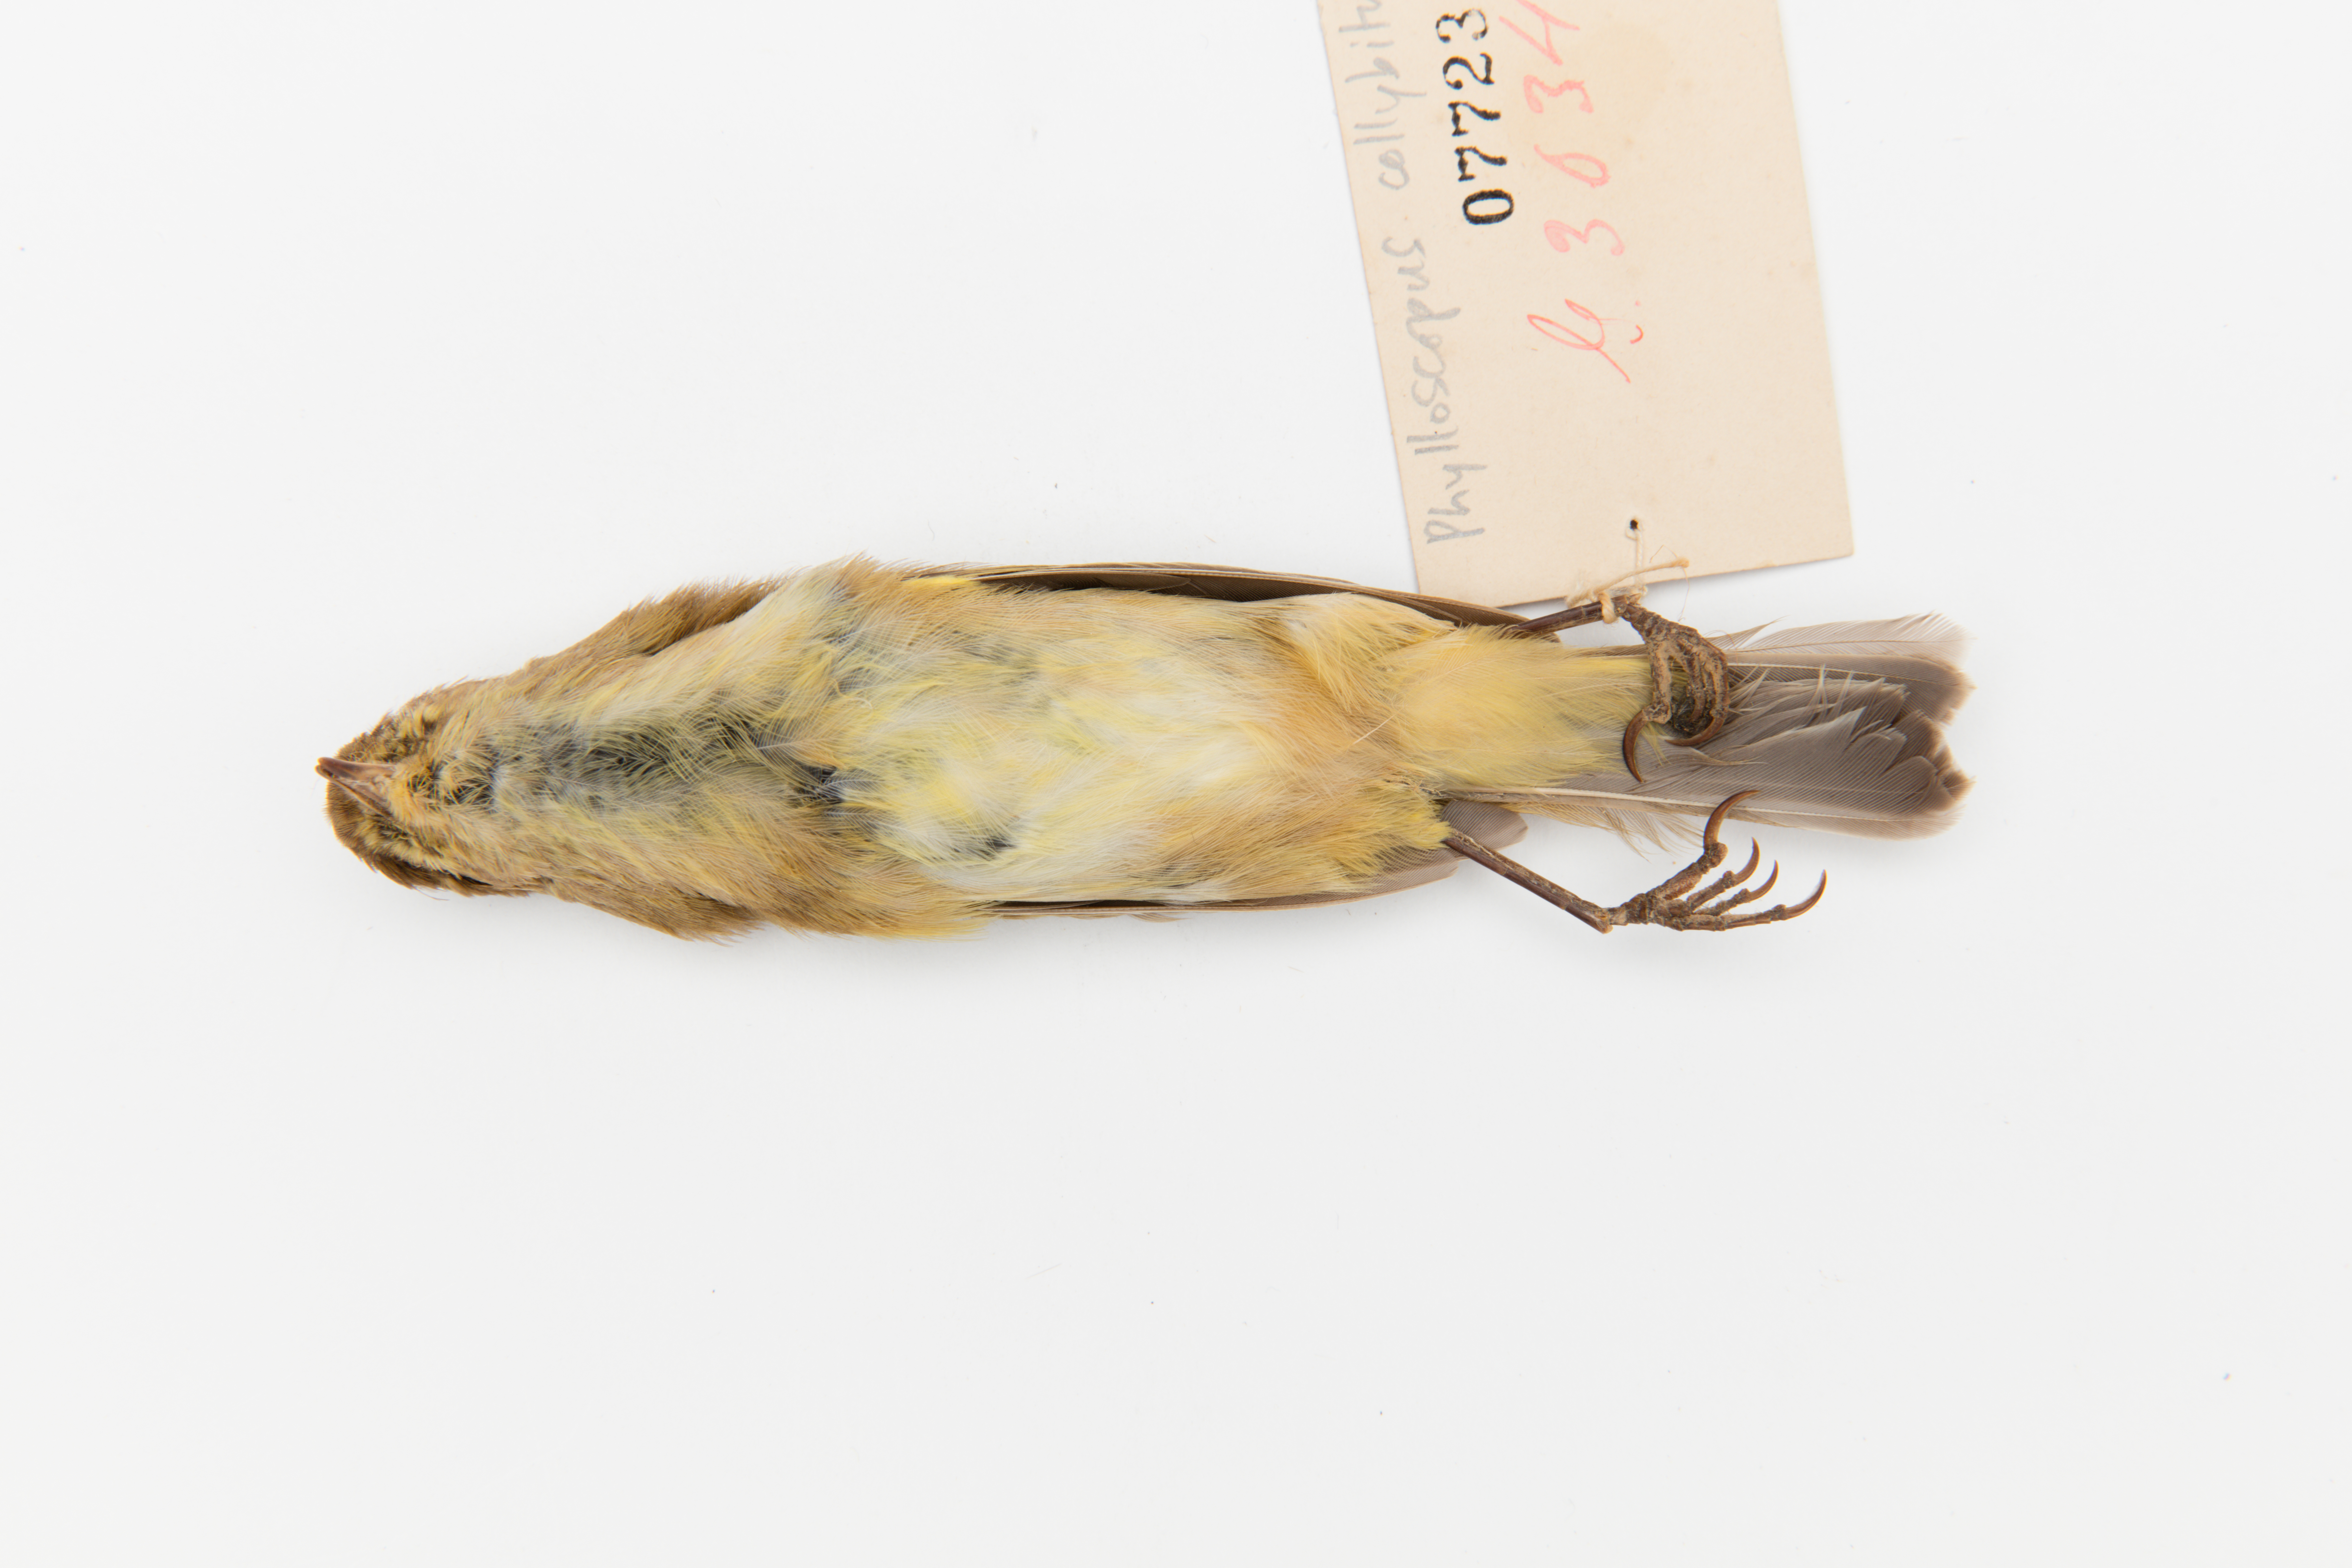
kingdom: Animalia
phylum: Chordata
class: Aves
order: Passeriformes
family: Phylloscopidae
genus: Phylloscopus
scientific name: Phylloscopus collybita
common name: Common chiffchaff
